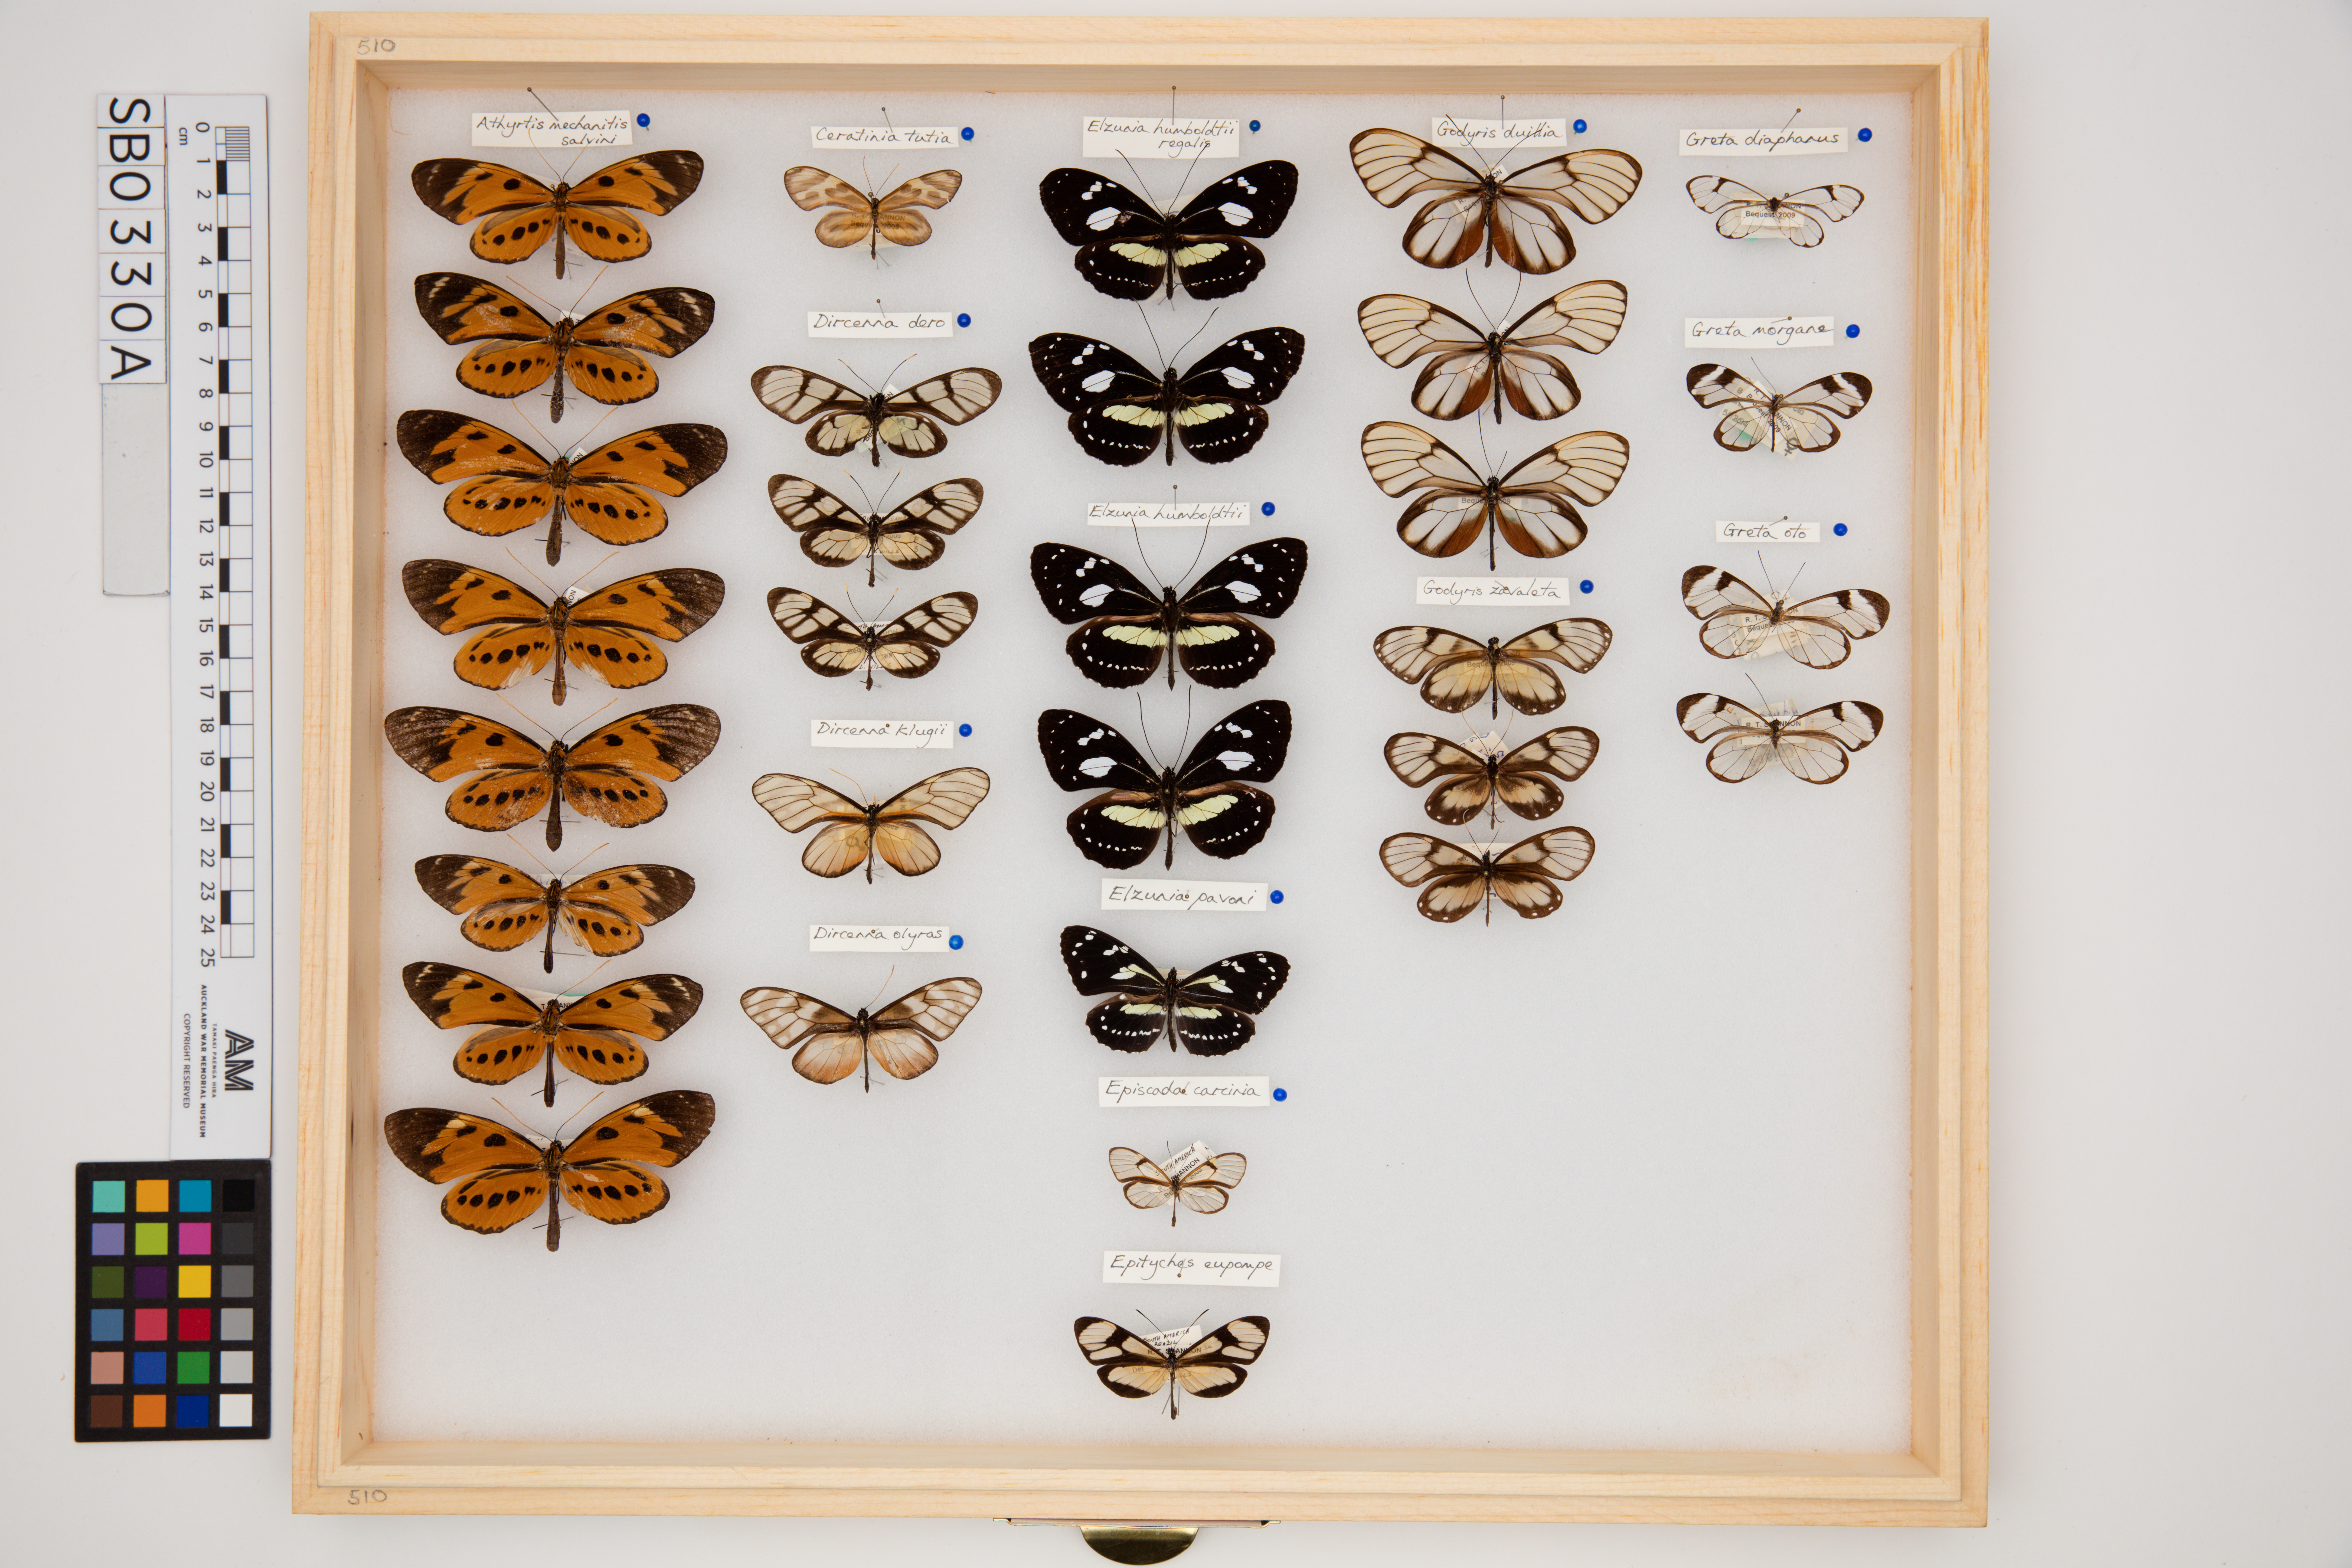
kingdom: Animalia
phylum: Arthropoda
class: Insecta
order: Lepidoptera
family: Nymphalidae
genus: Dircenna
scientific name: Dircenna dero
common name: Dero clearwing
